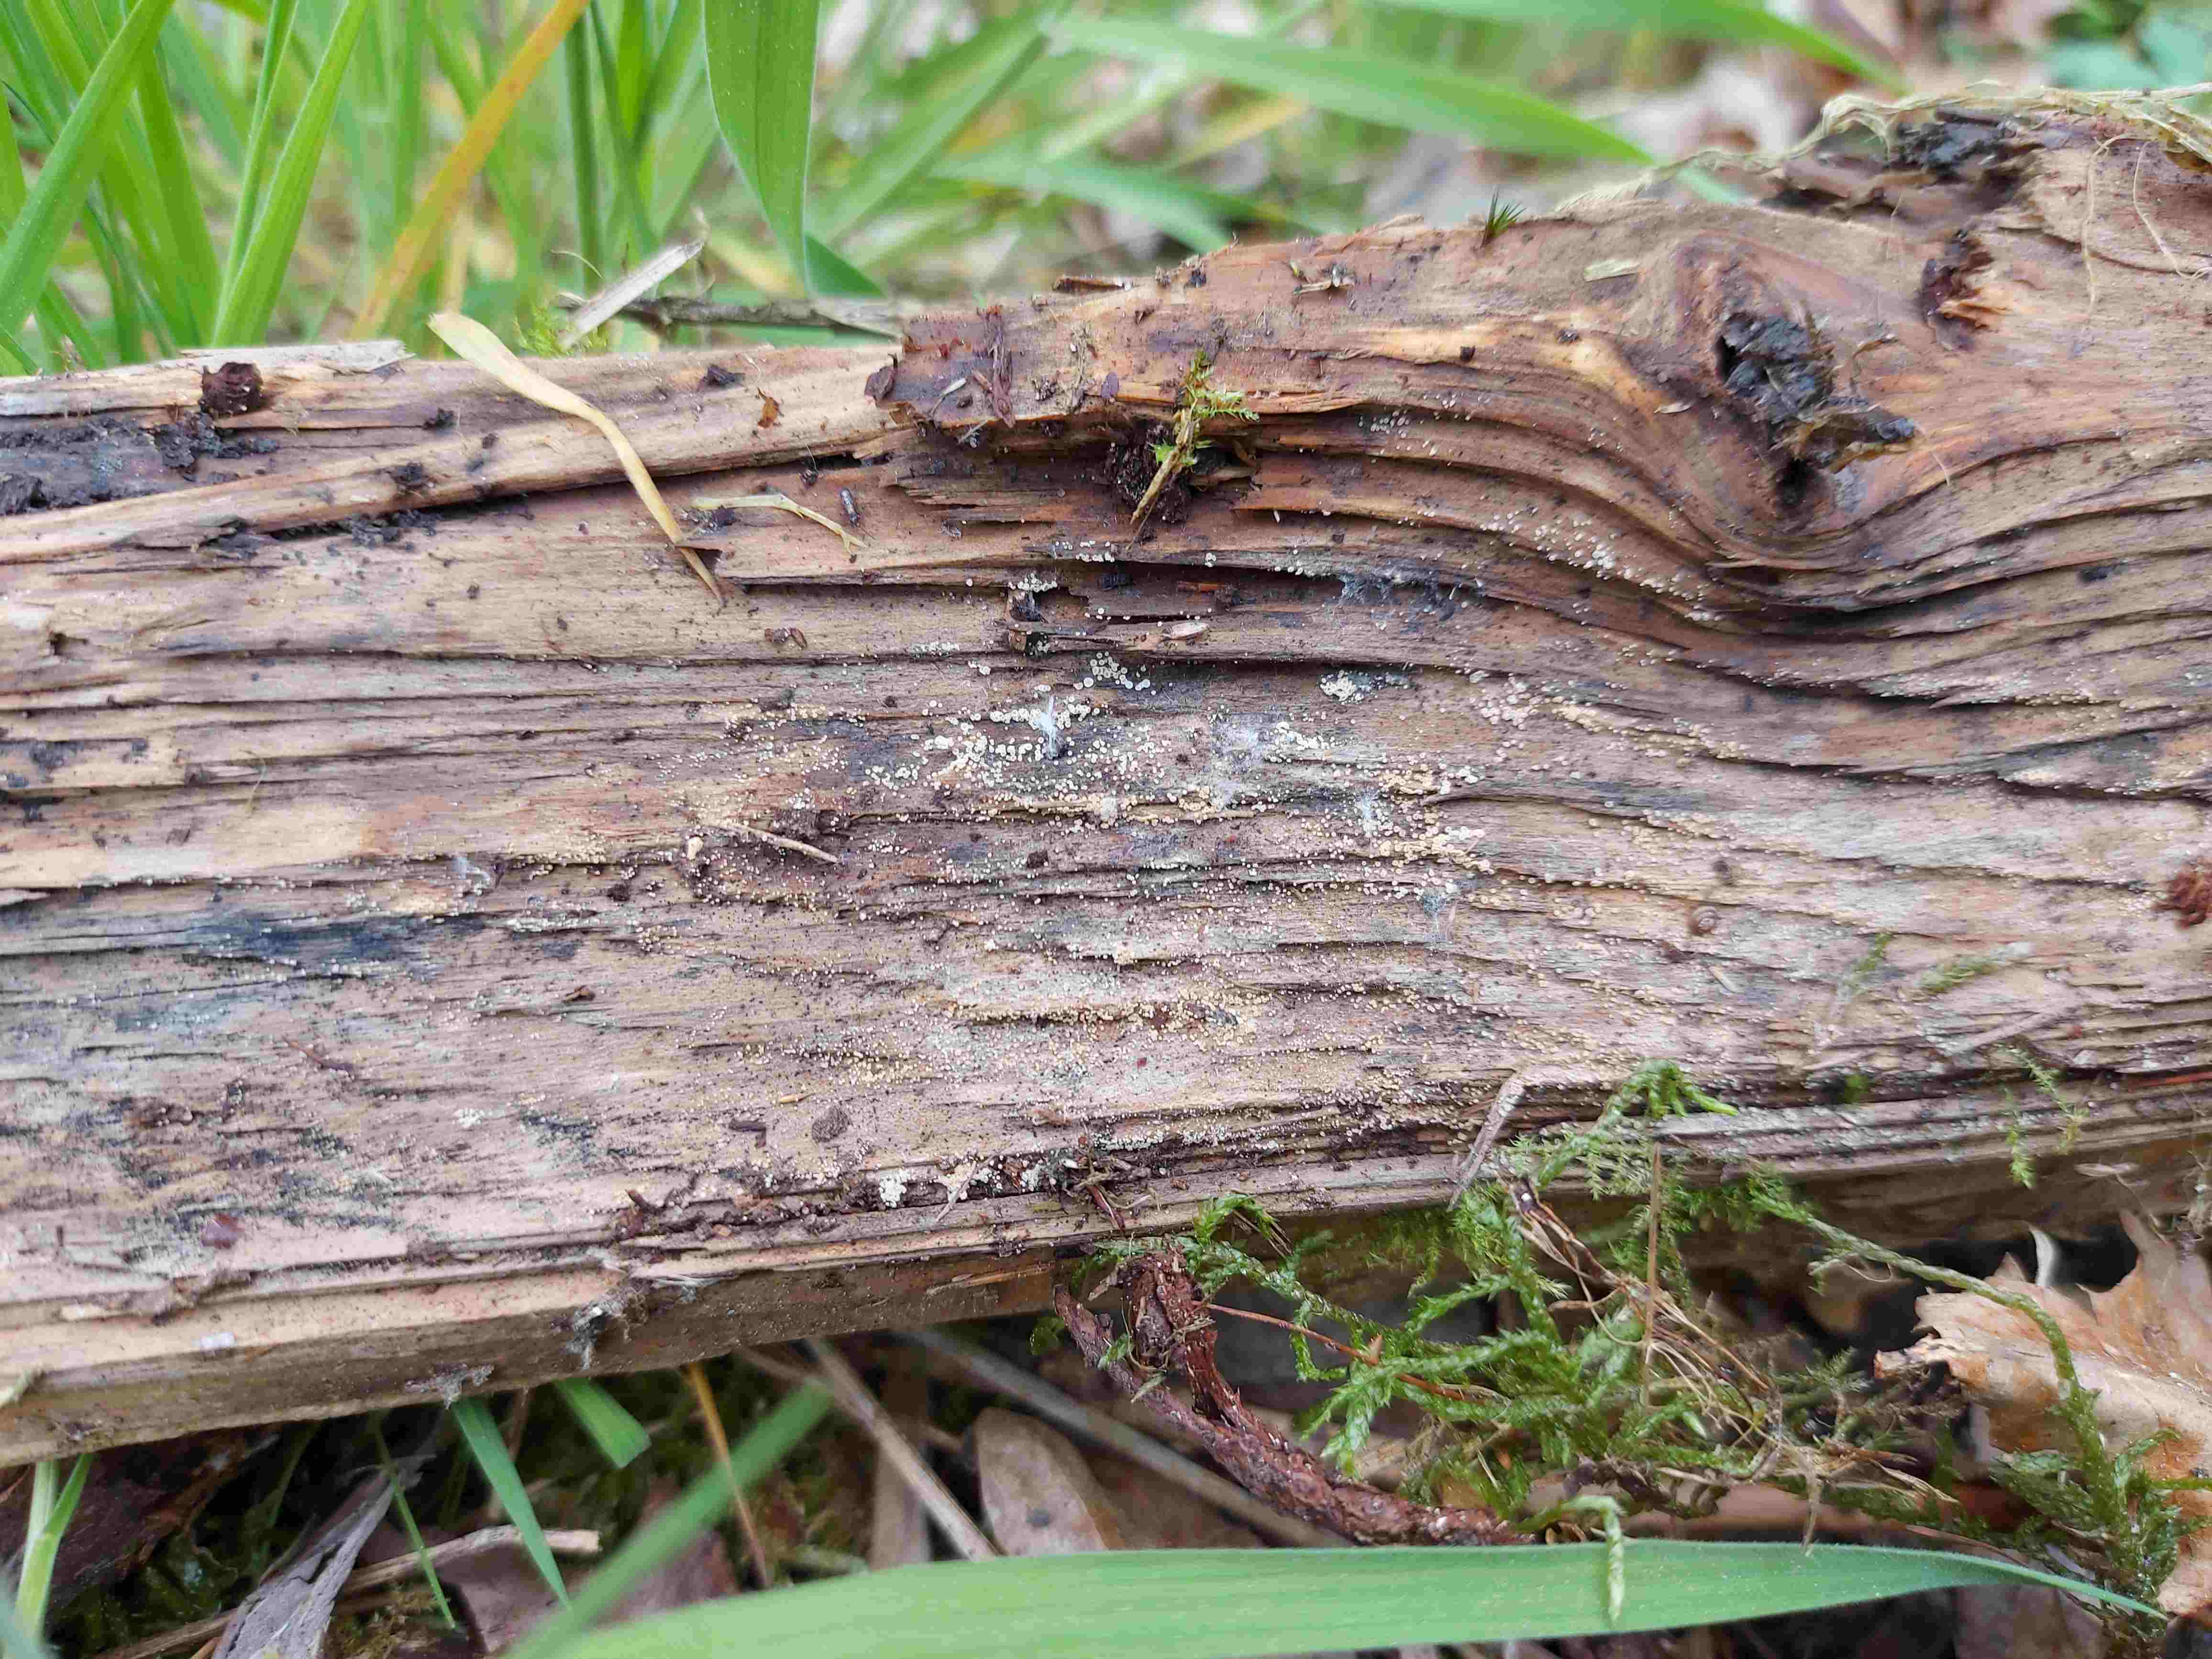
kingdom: Fungi
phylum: Ascomycota
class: Leotiomycetes
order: Helotiales
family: Hyaloscyphaceae
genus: Eupezizella
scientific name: Eupezizella aureliella
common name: almindelig klarskive
